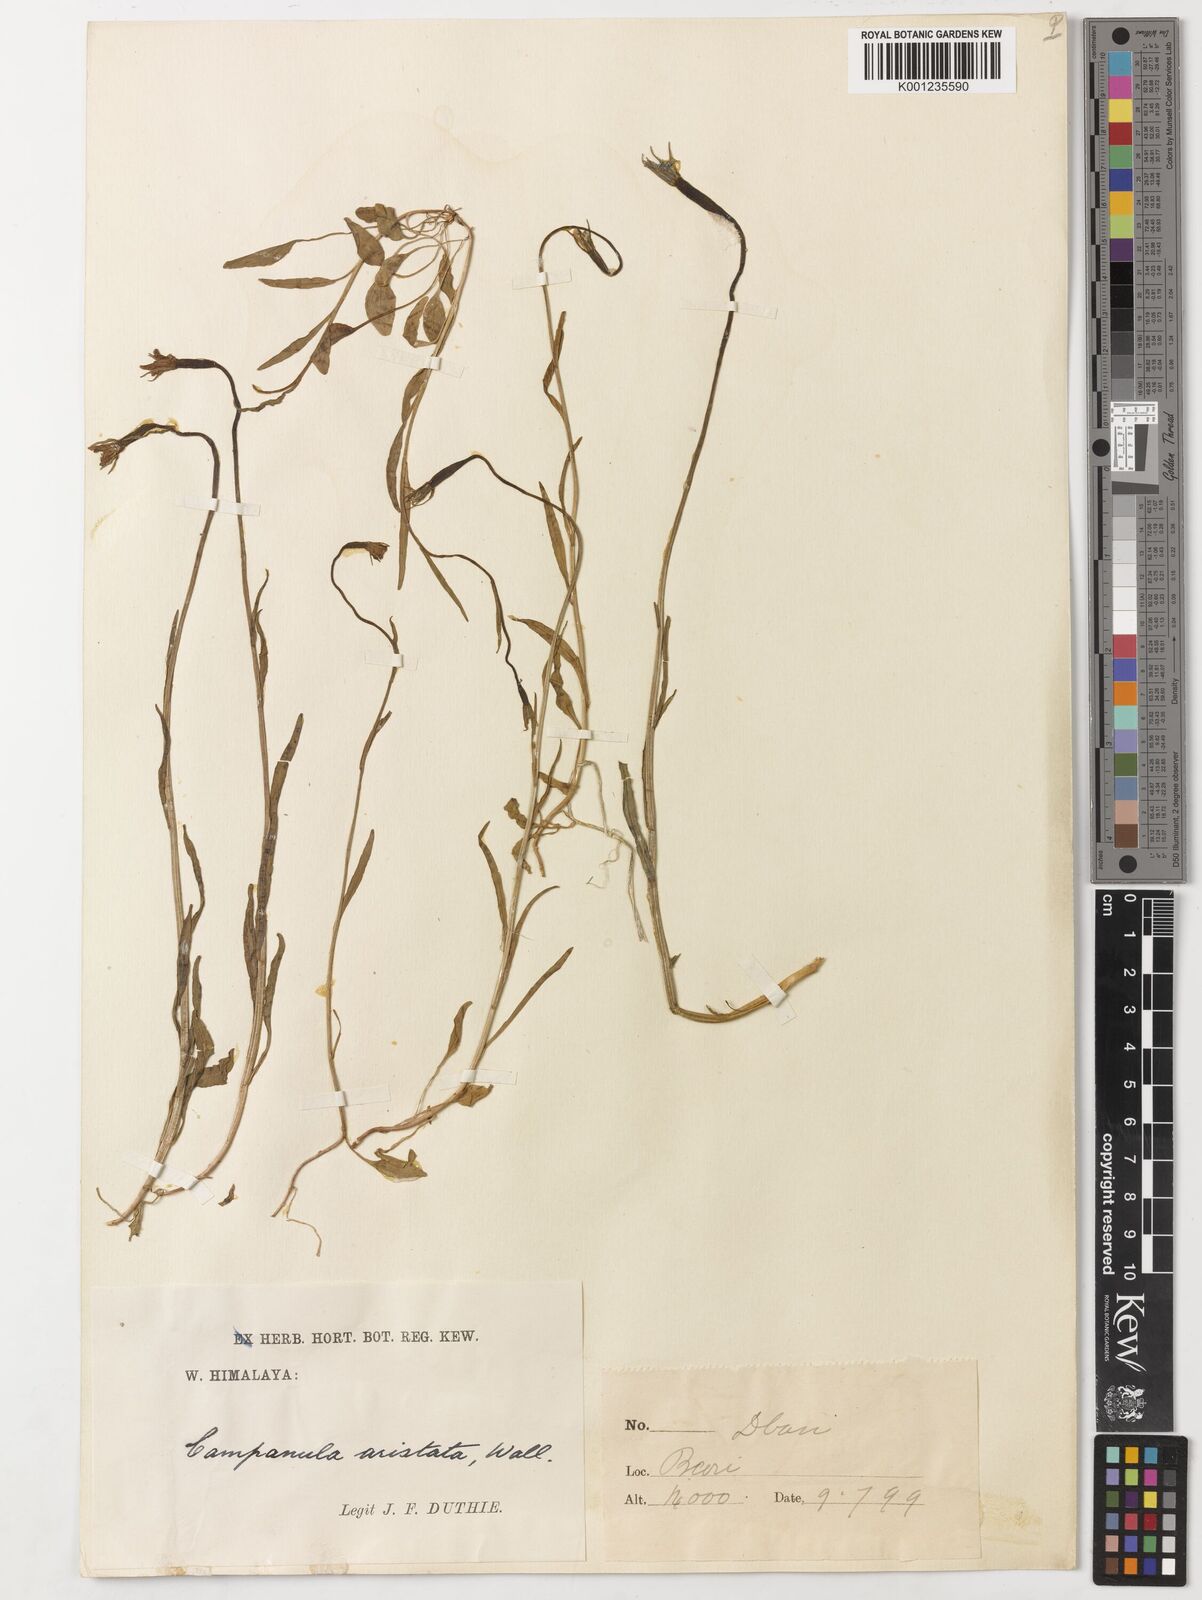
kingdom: Plantae
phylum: Tracheophyta
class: Magnoliopsida
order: Asterales
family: Campanulaceae
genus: Campanula
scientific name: Campanula aristata
